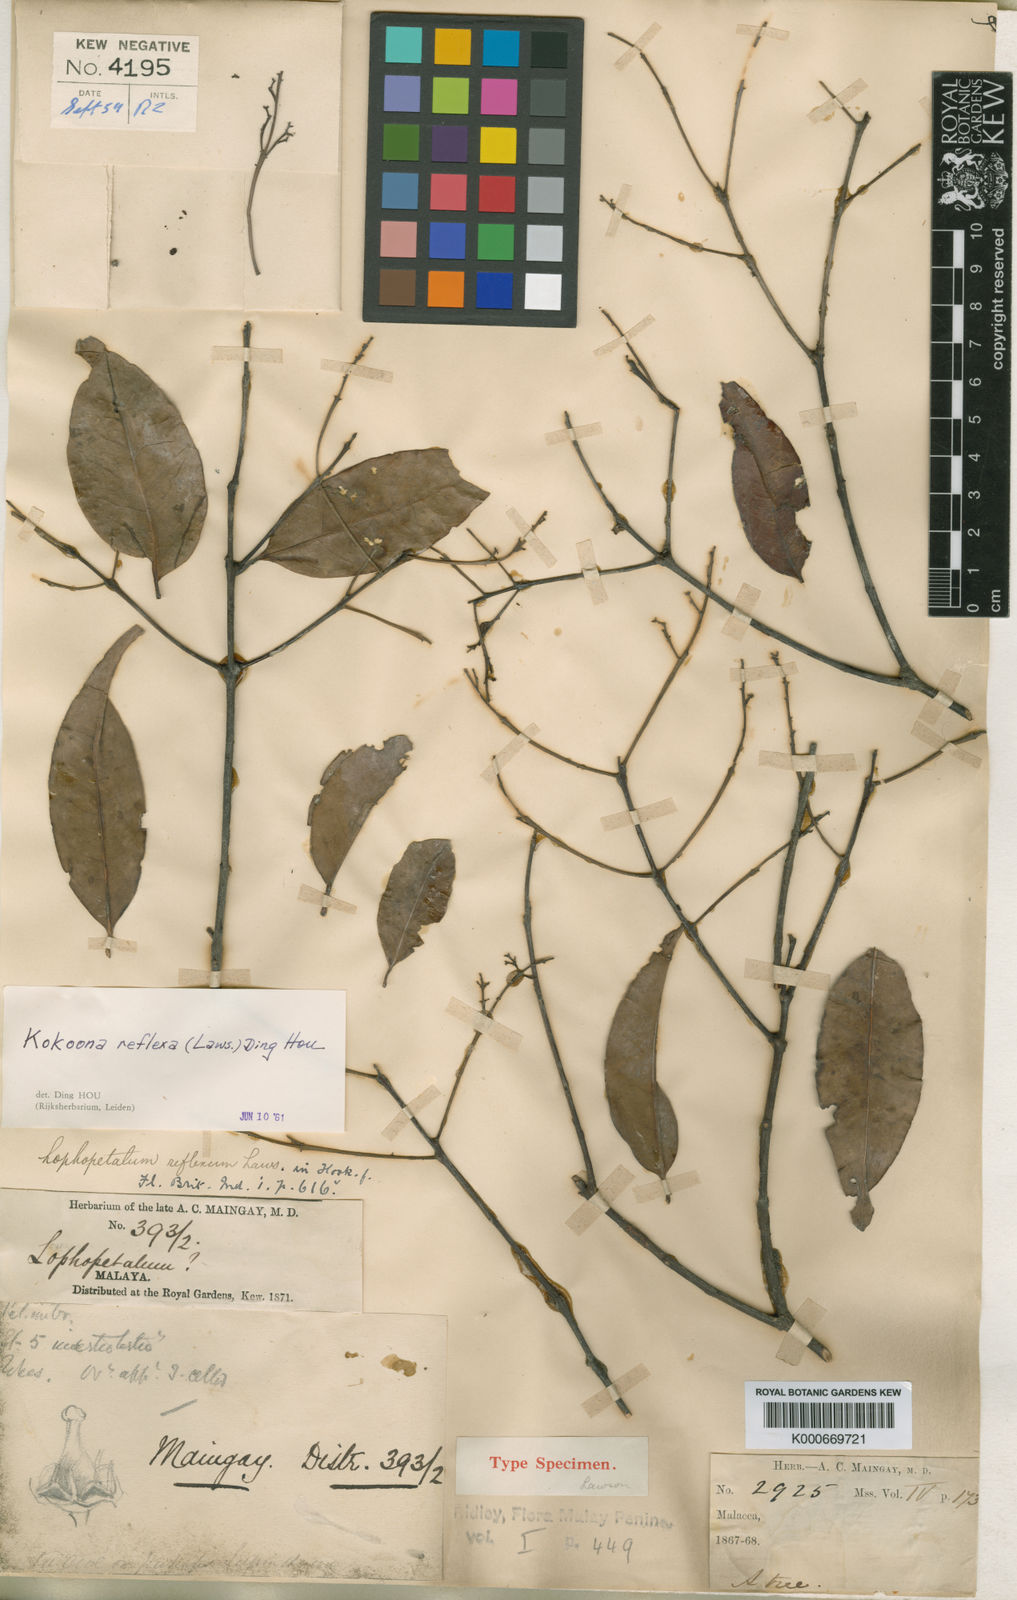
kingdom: Plantae
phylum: Tracheophyta
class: Magnoliopsida
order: Celastrales
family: Celastraceae
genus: Kokoona
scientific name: Kokoona reflexa
